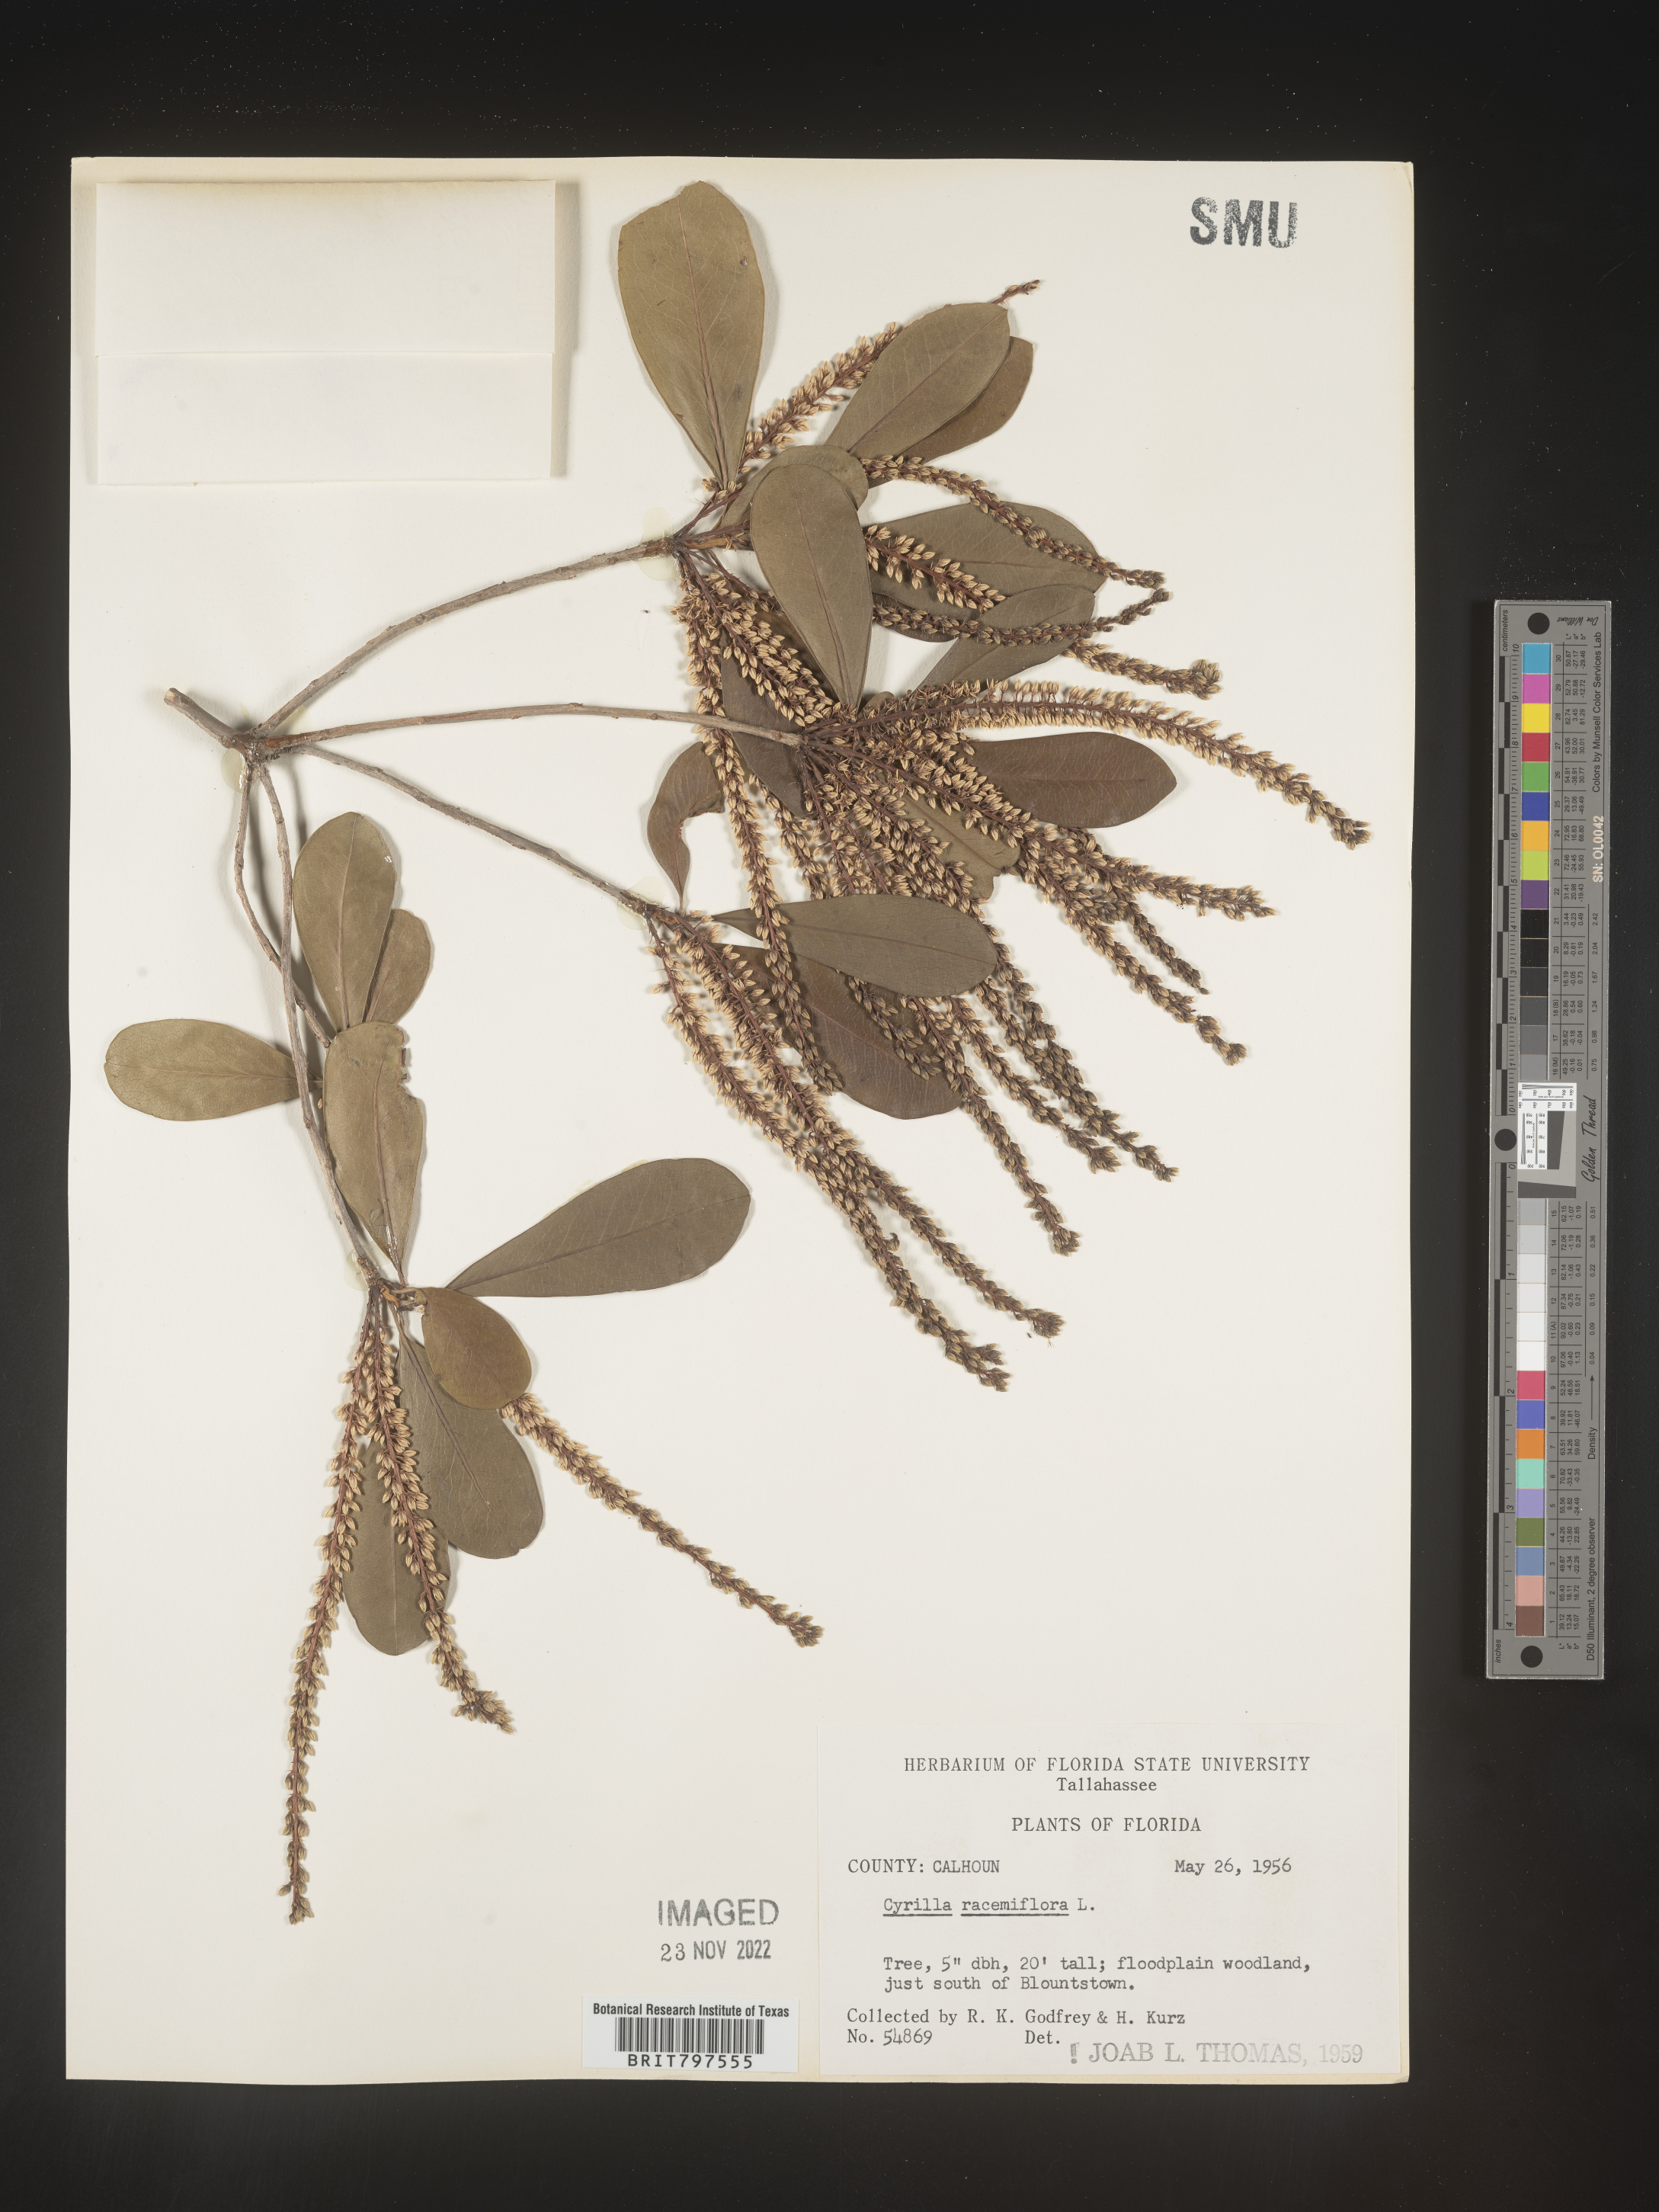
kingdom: Plantae
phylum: Tracheophyta
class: Magnoliopsida
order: Ericales
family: Cyrillaceae
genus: Cyrilla
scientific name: Cyrilla racemiflora
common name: Black titi
